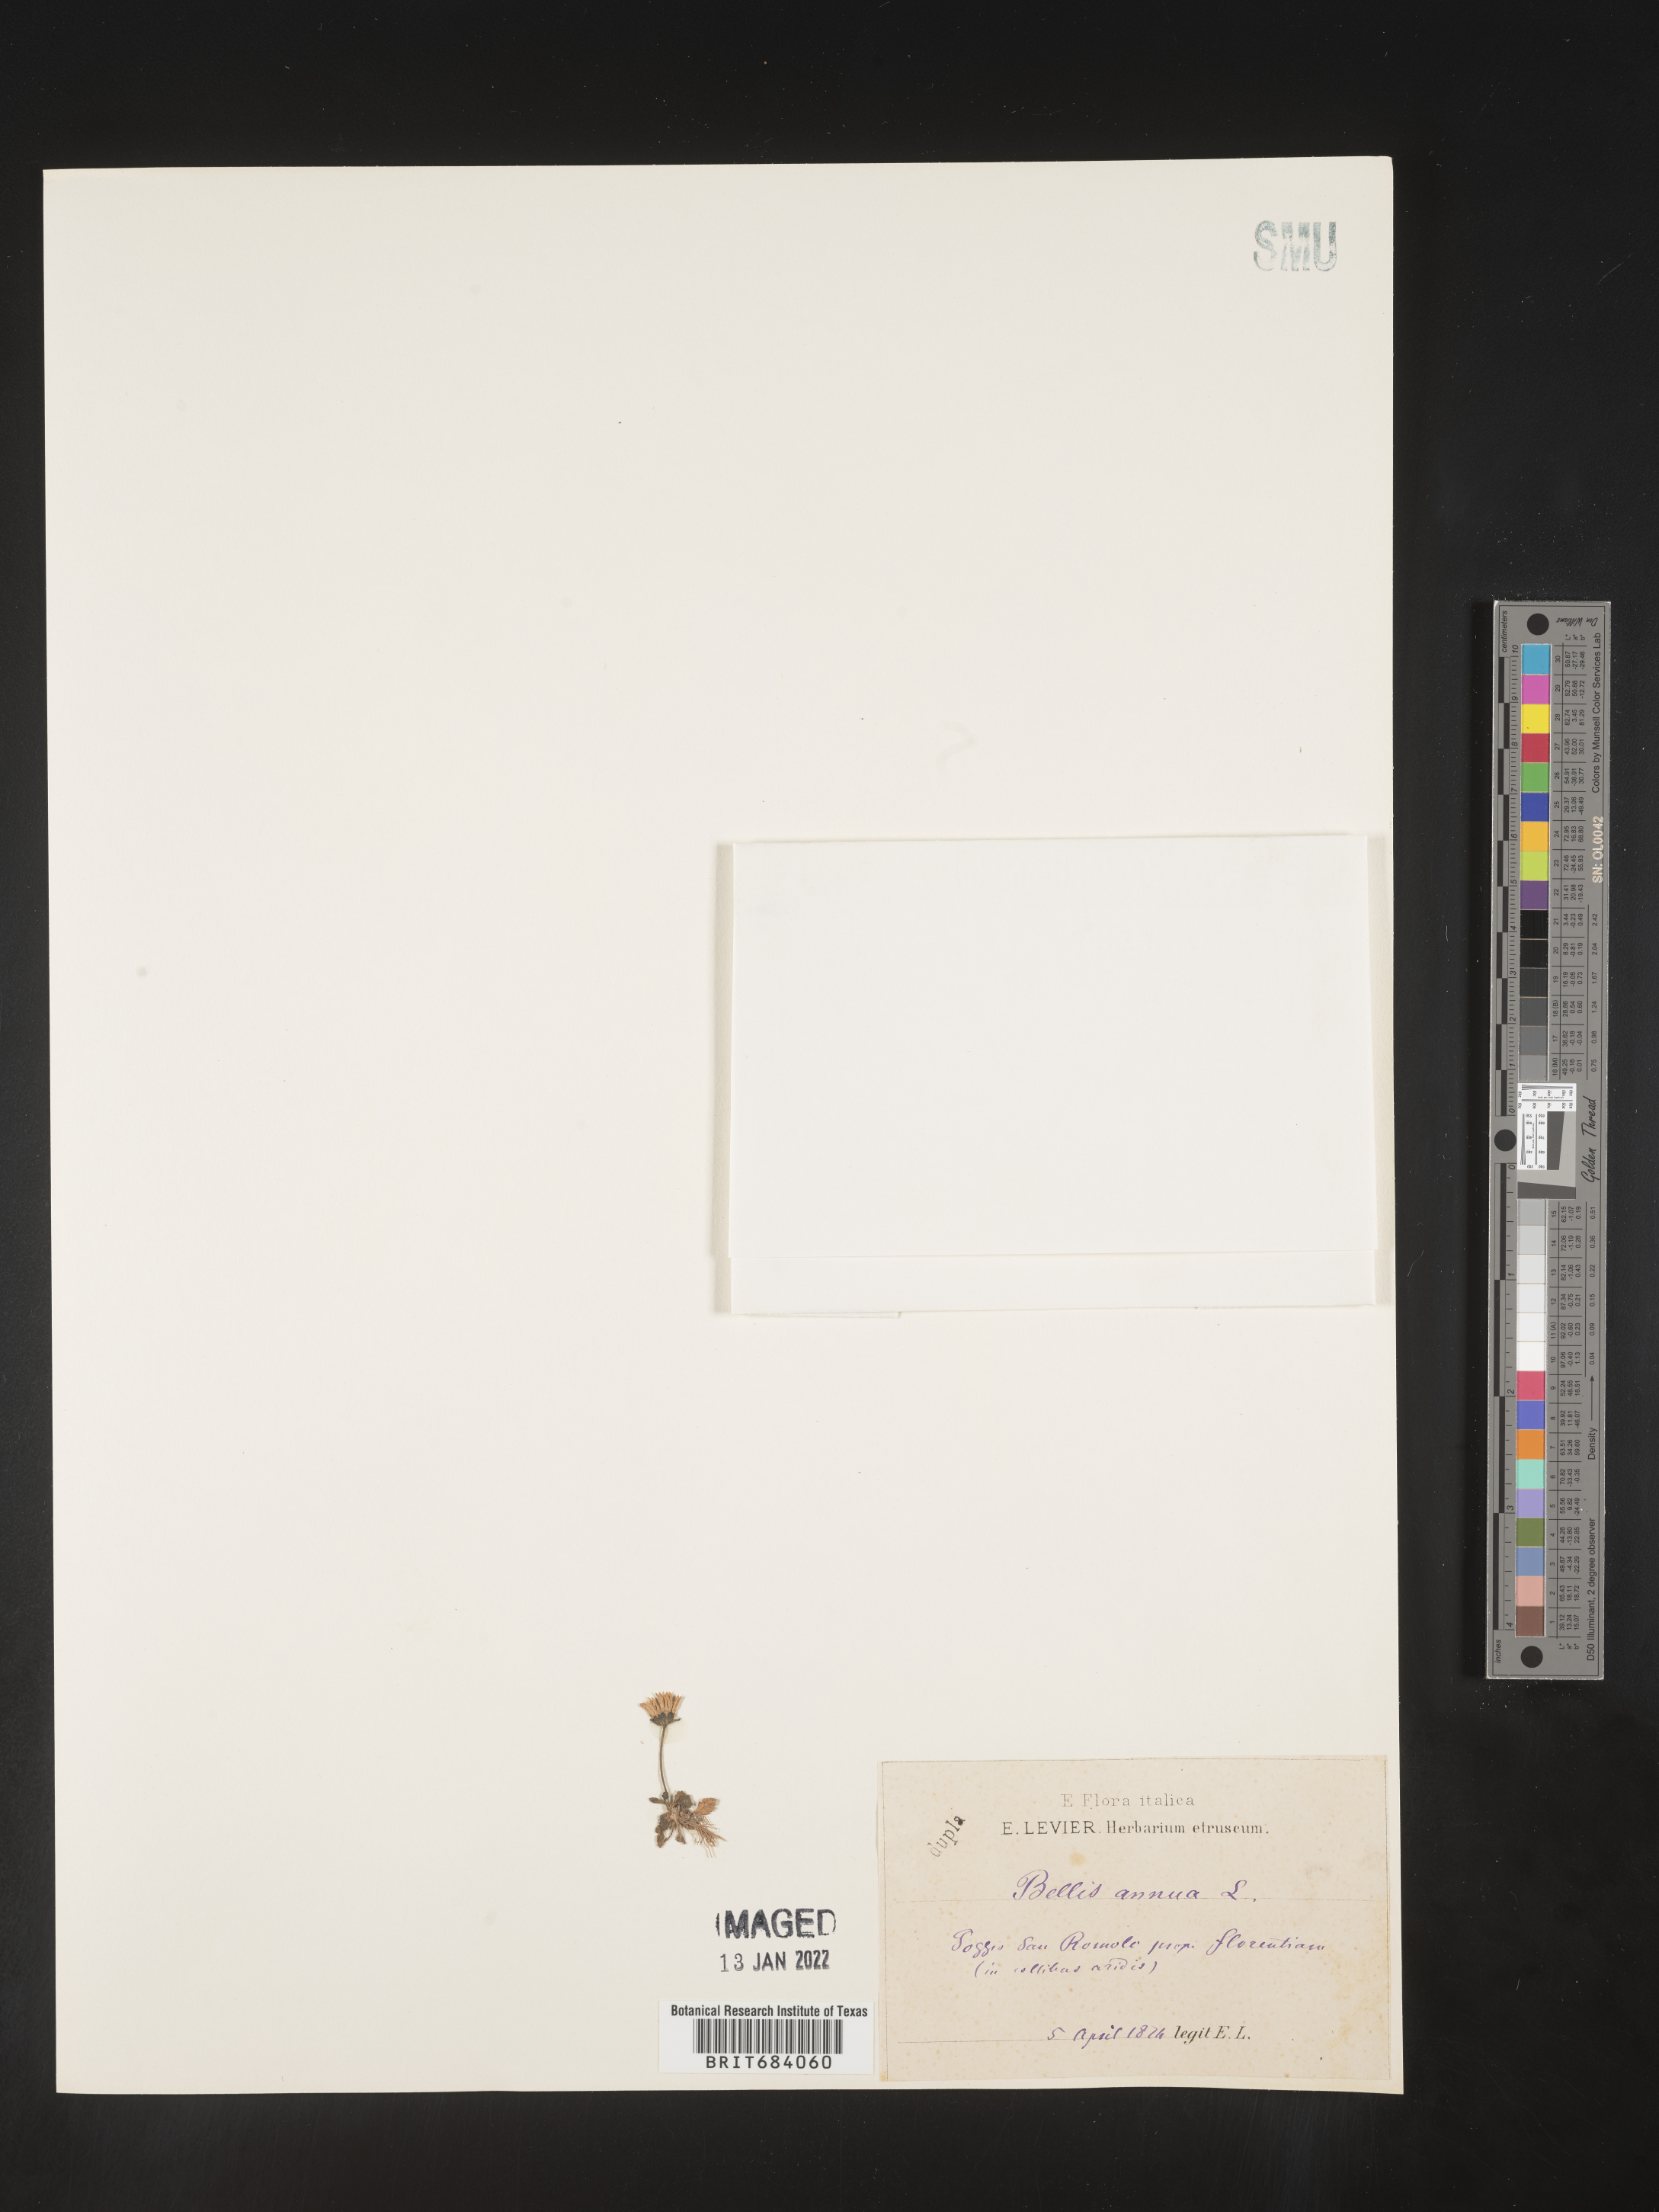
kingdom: Plantae
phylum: Tracheophyta
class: Magnoliopsida
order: Asterales
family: Asteraceae
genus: Bellis
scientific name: Bellis
